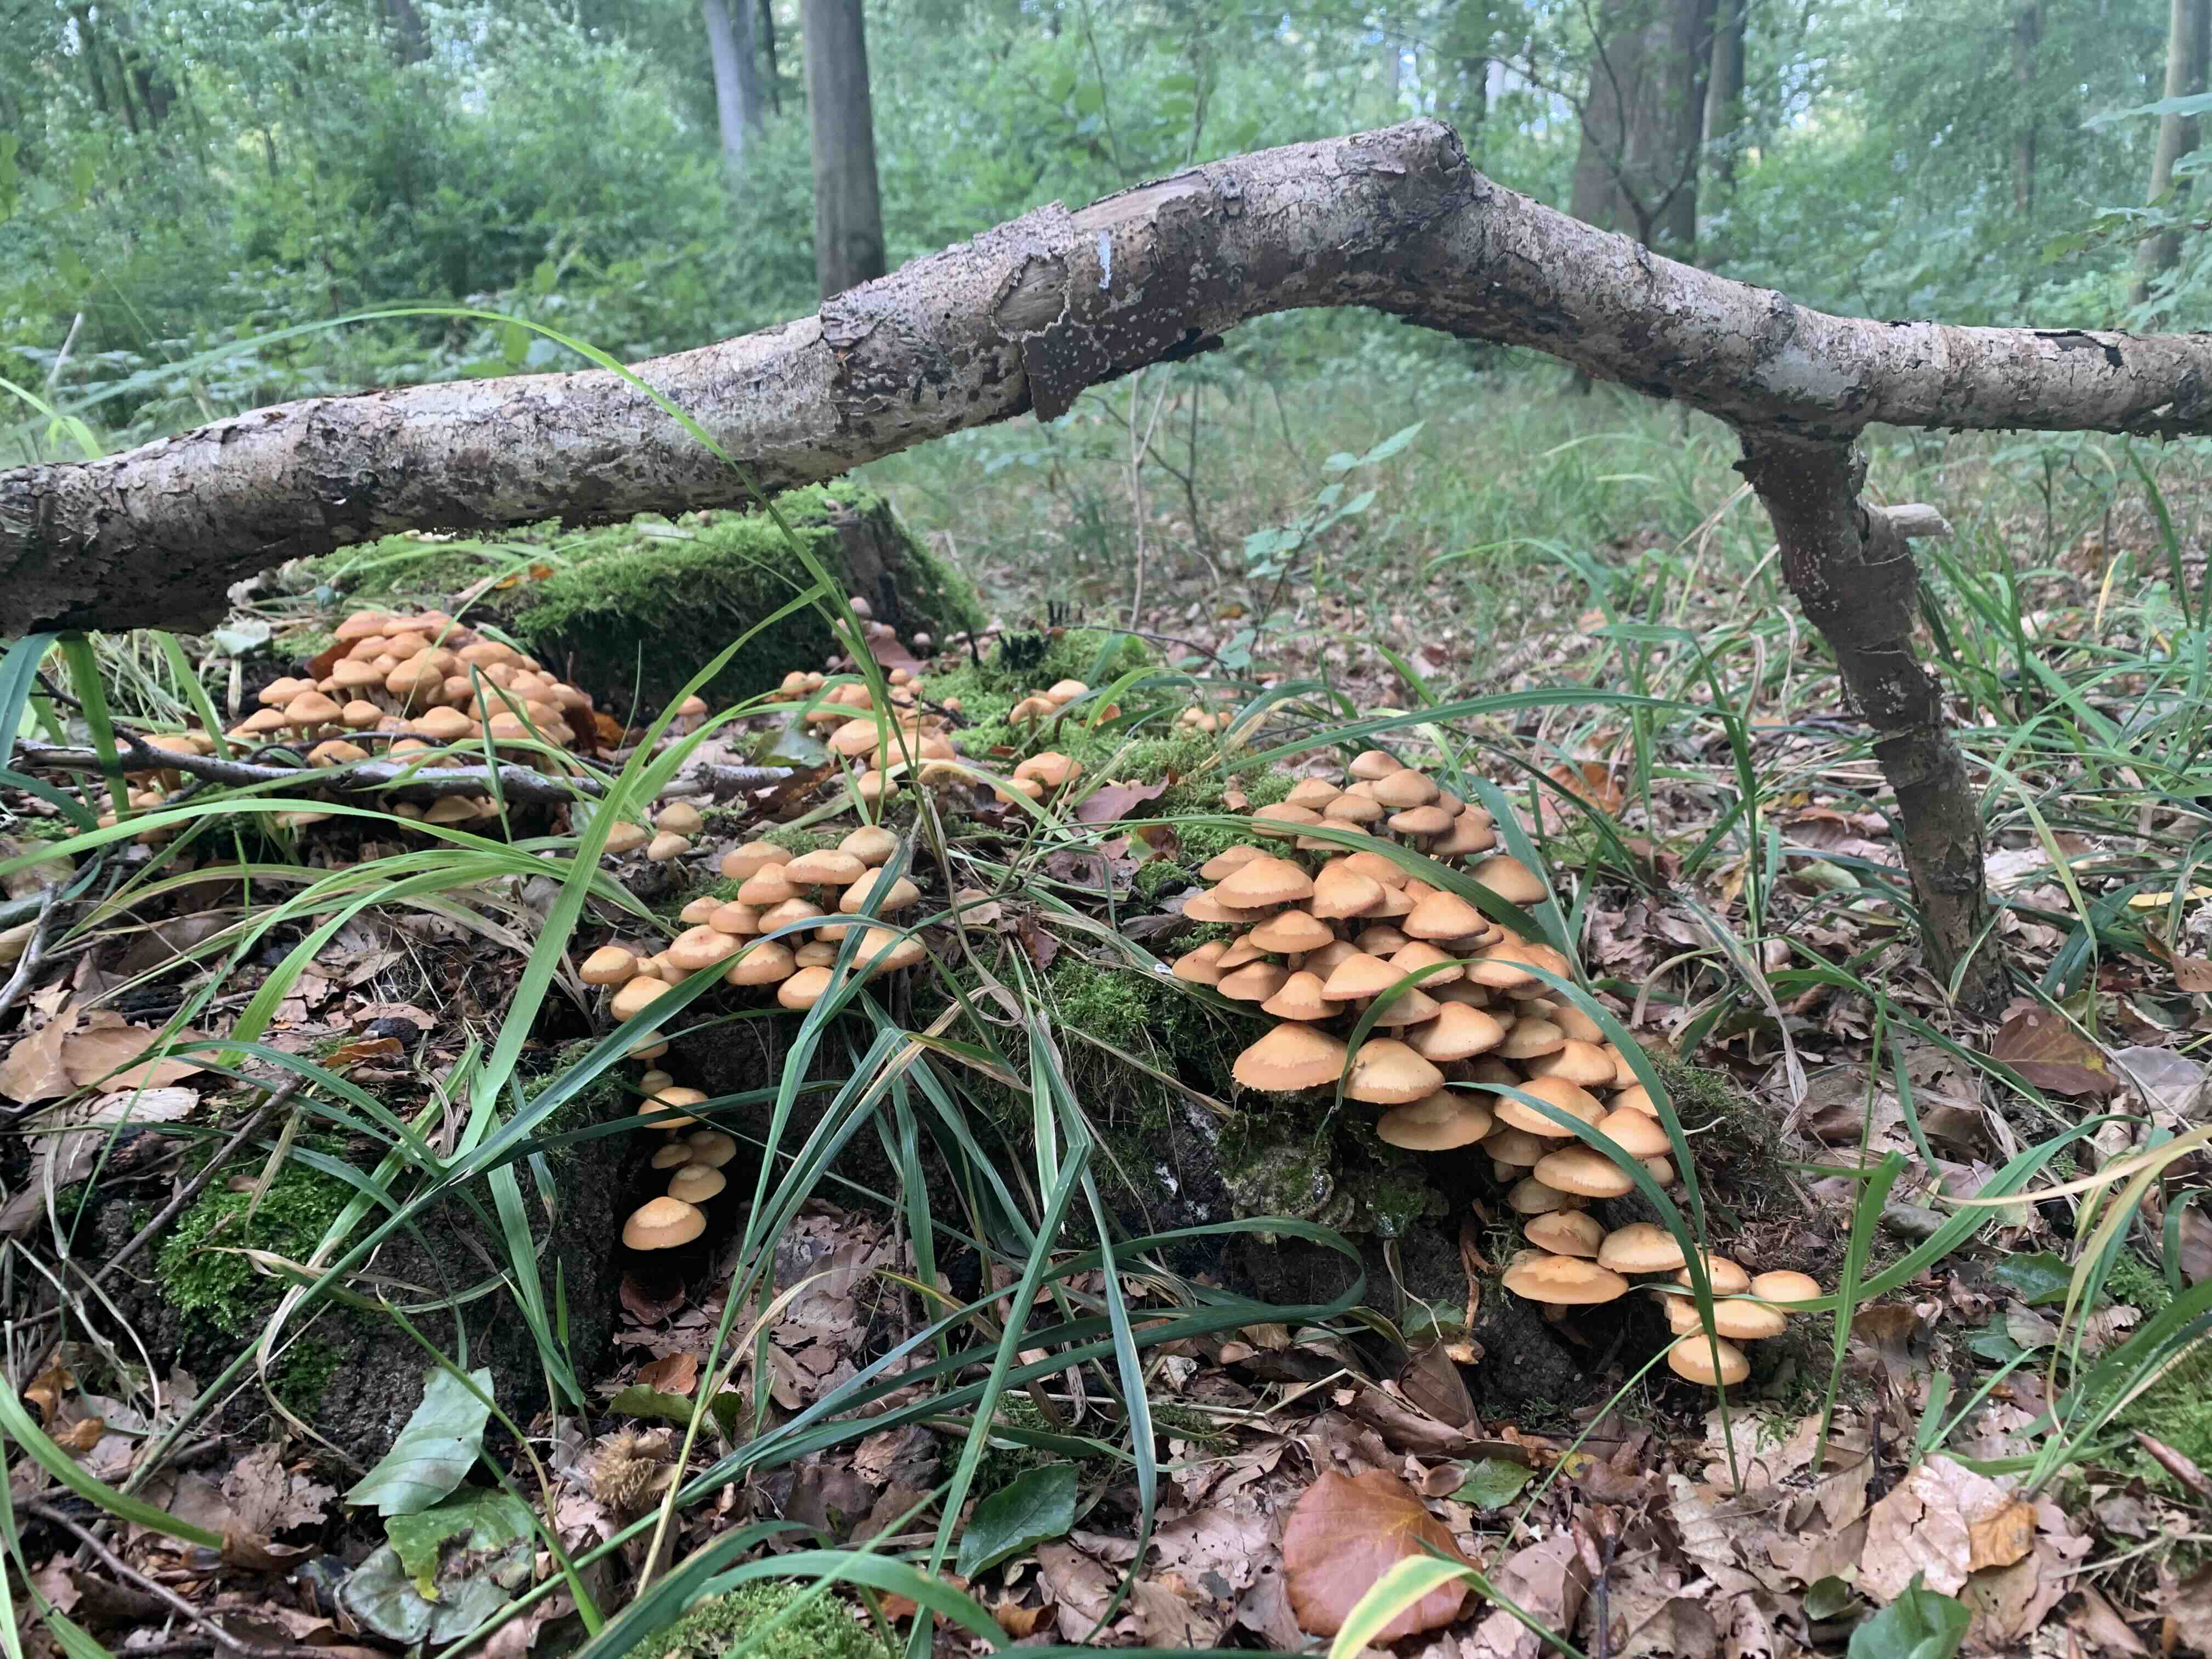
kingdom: Fungi
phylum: Basidiomycota
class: Agaricomycetes
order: Agaricales
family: Strophariaceae
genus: Kuehneromyces
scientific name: Kuehneromyces mutabilis
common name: foranderlig skælhat
